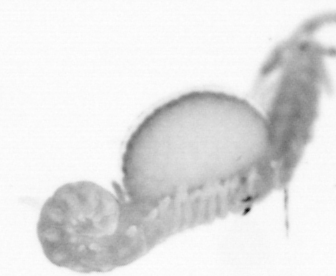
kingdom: Animalia
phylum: Annelida
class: Polychaeta
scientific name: Polychaeta
